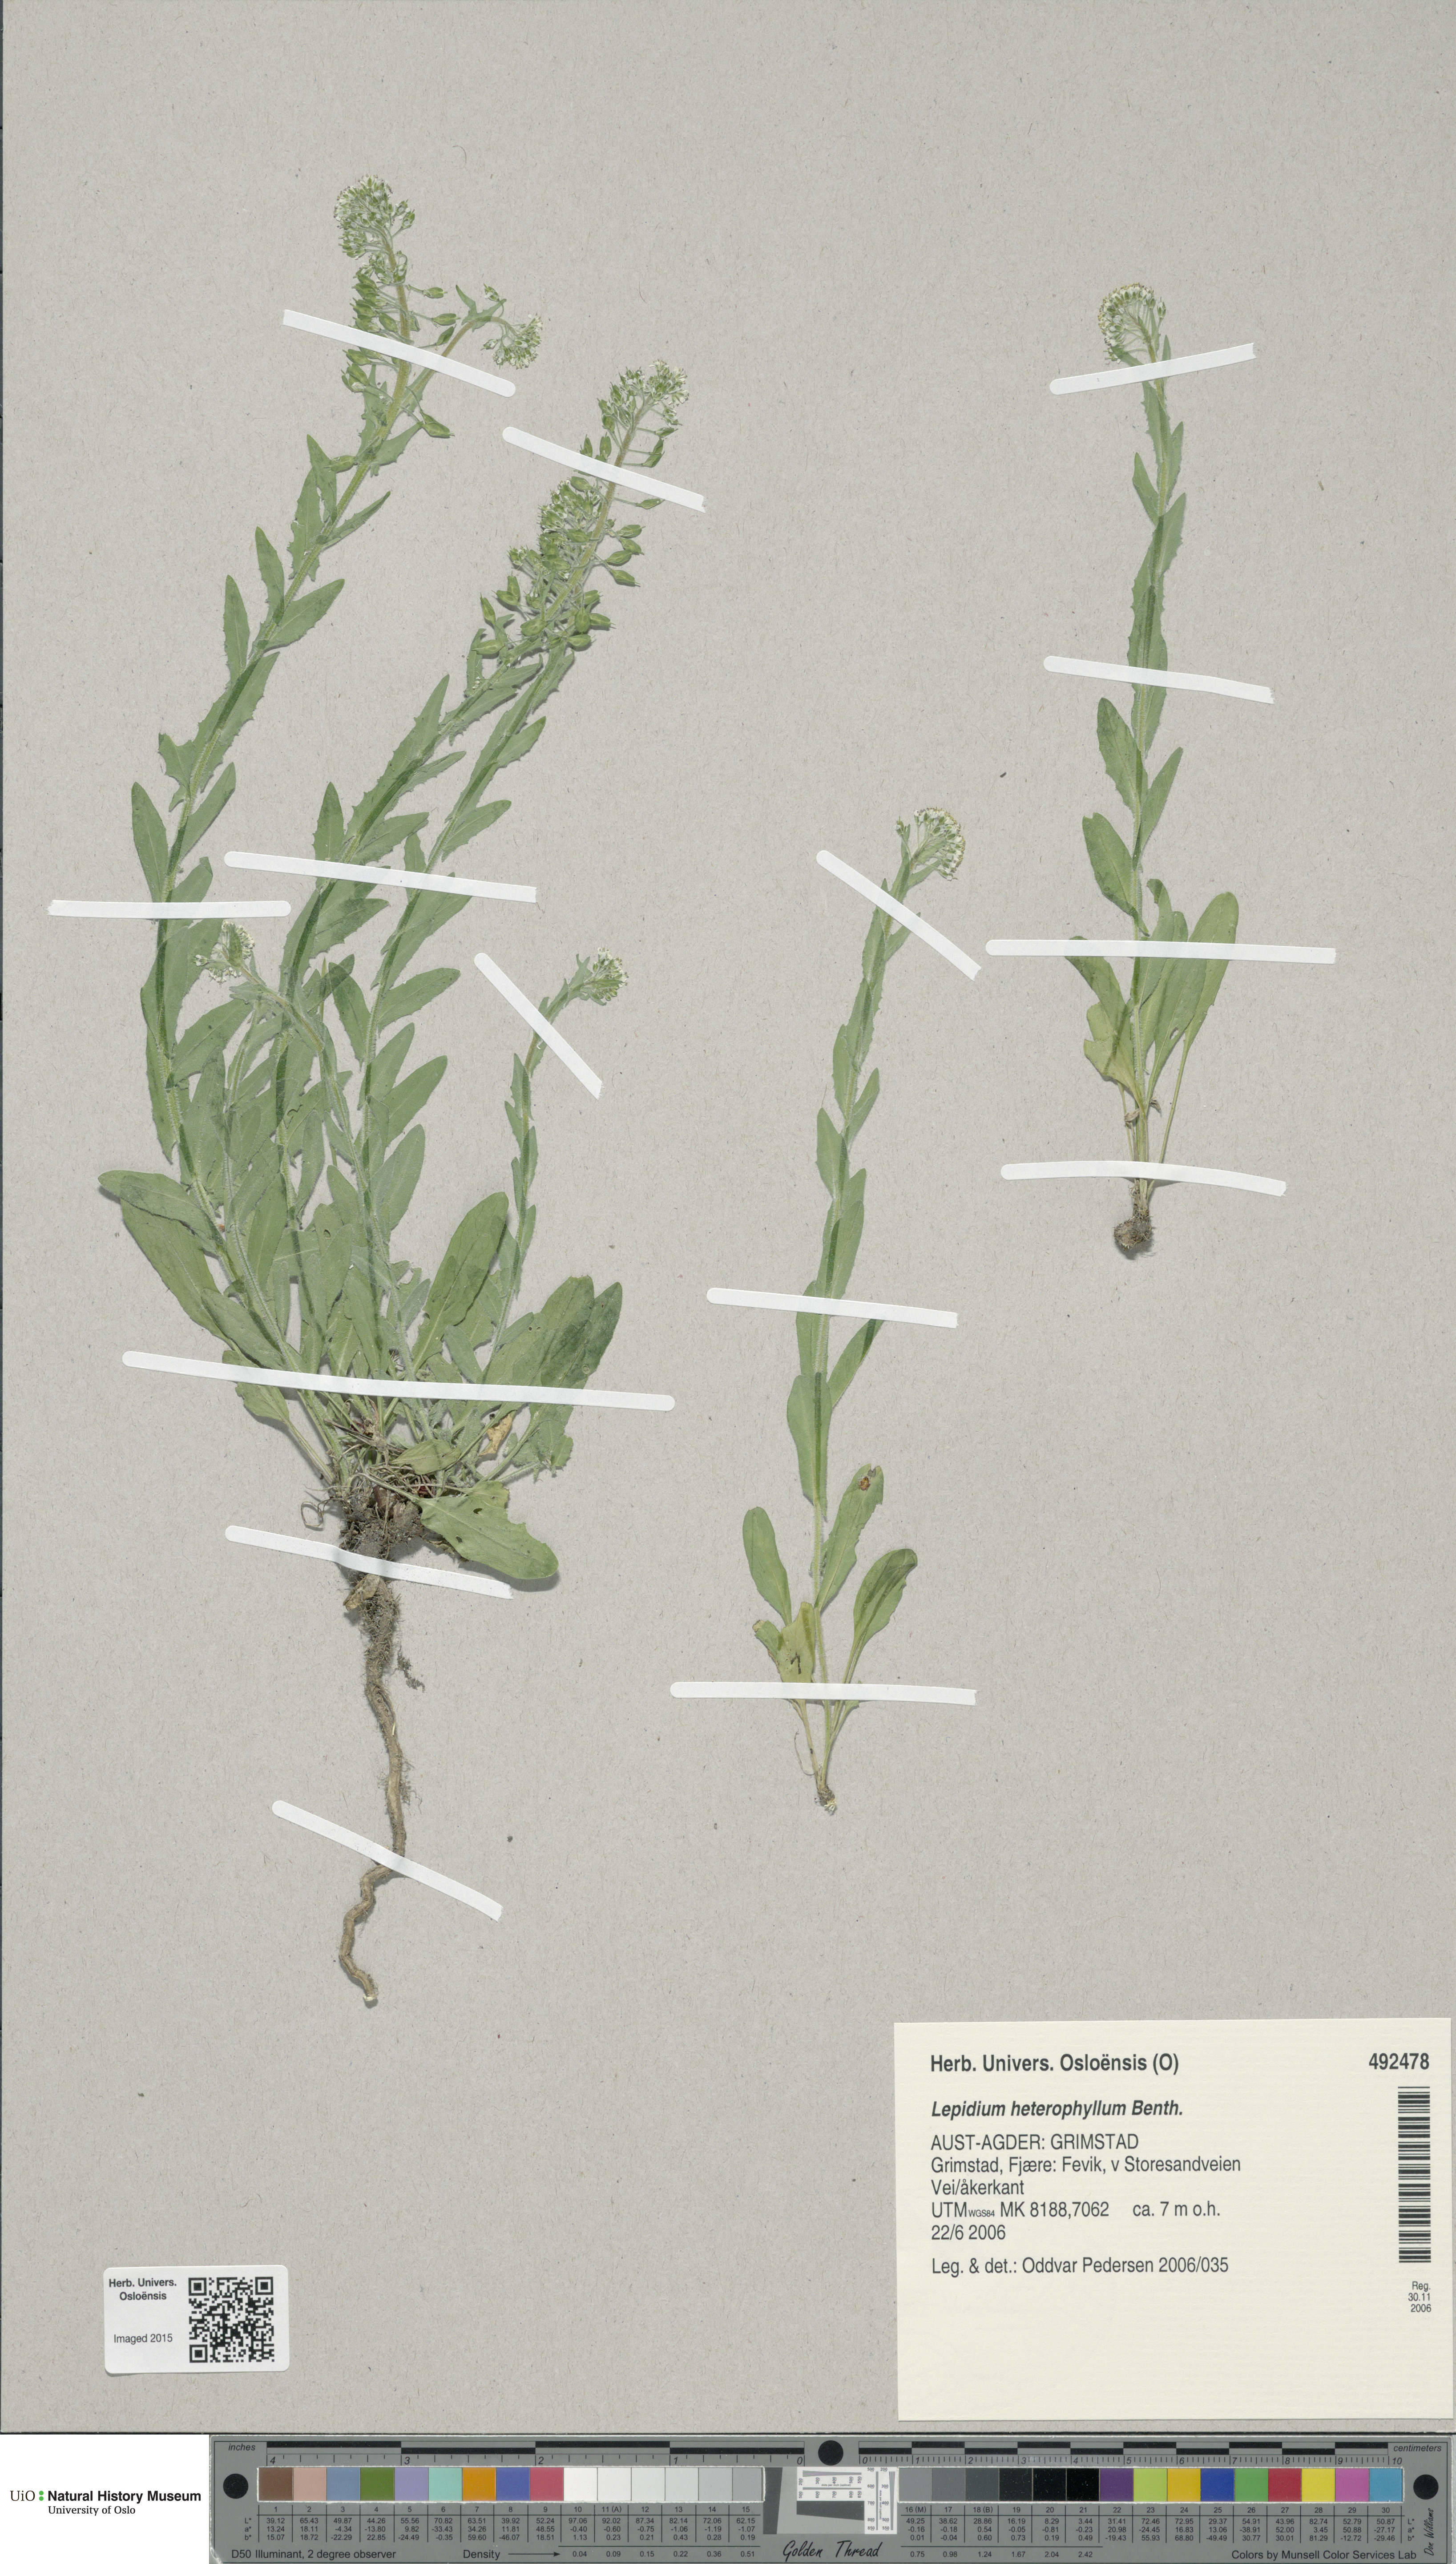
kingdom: Plantae
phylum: Tracheophyta
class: Magnoliopsida
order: Brassicales
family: Brassicaceae
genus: Lepidium
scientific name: Lepidium heterophyllum
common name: Smith's pepperwort
